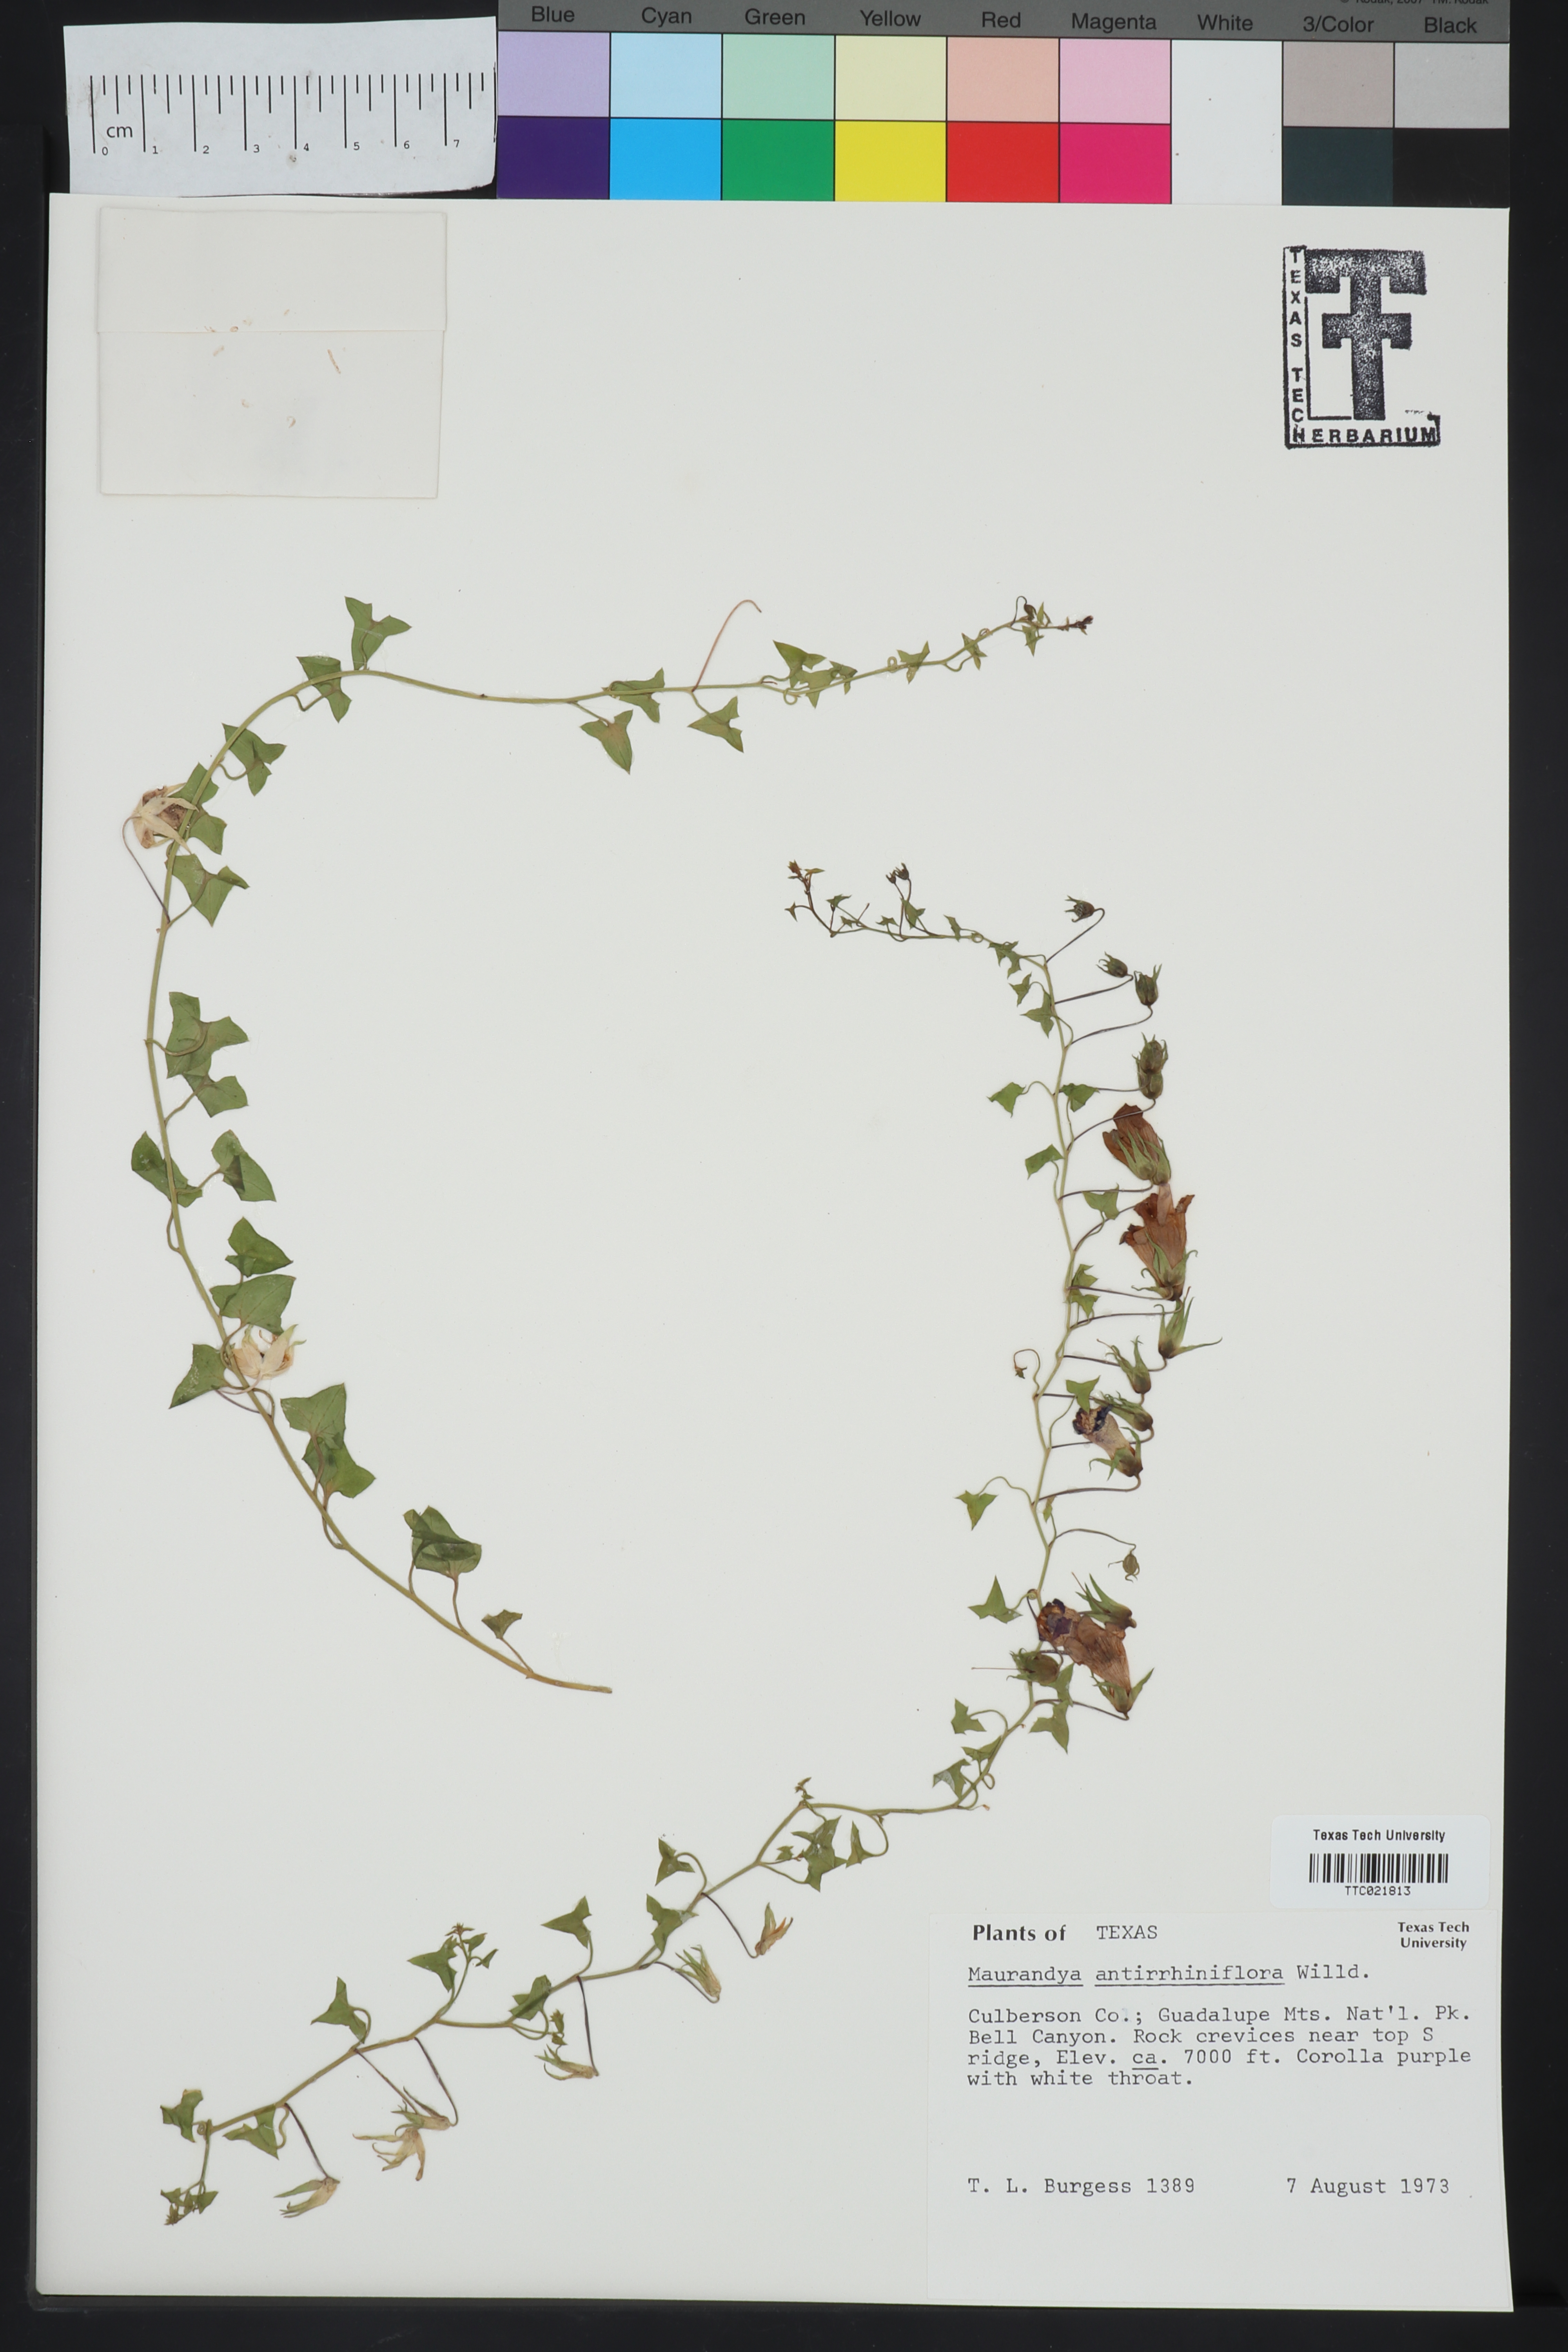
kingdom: Plantae
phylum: Tracheophyta
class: Magnoliopsida
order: Lamiales
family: Plantaginaceae
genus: Maurandella
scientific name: Maurandella antirrhiniflora
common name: Violet twining-snapdragon
